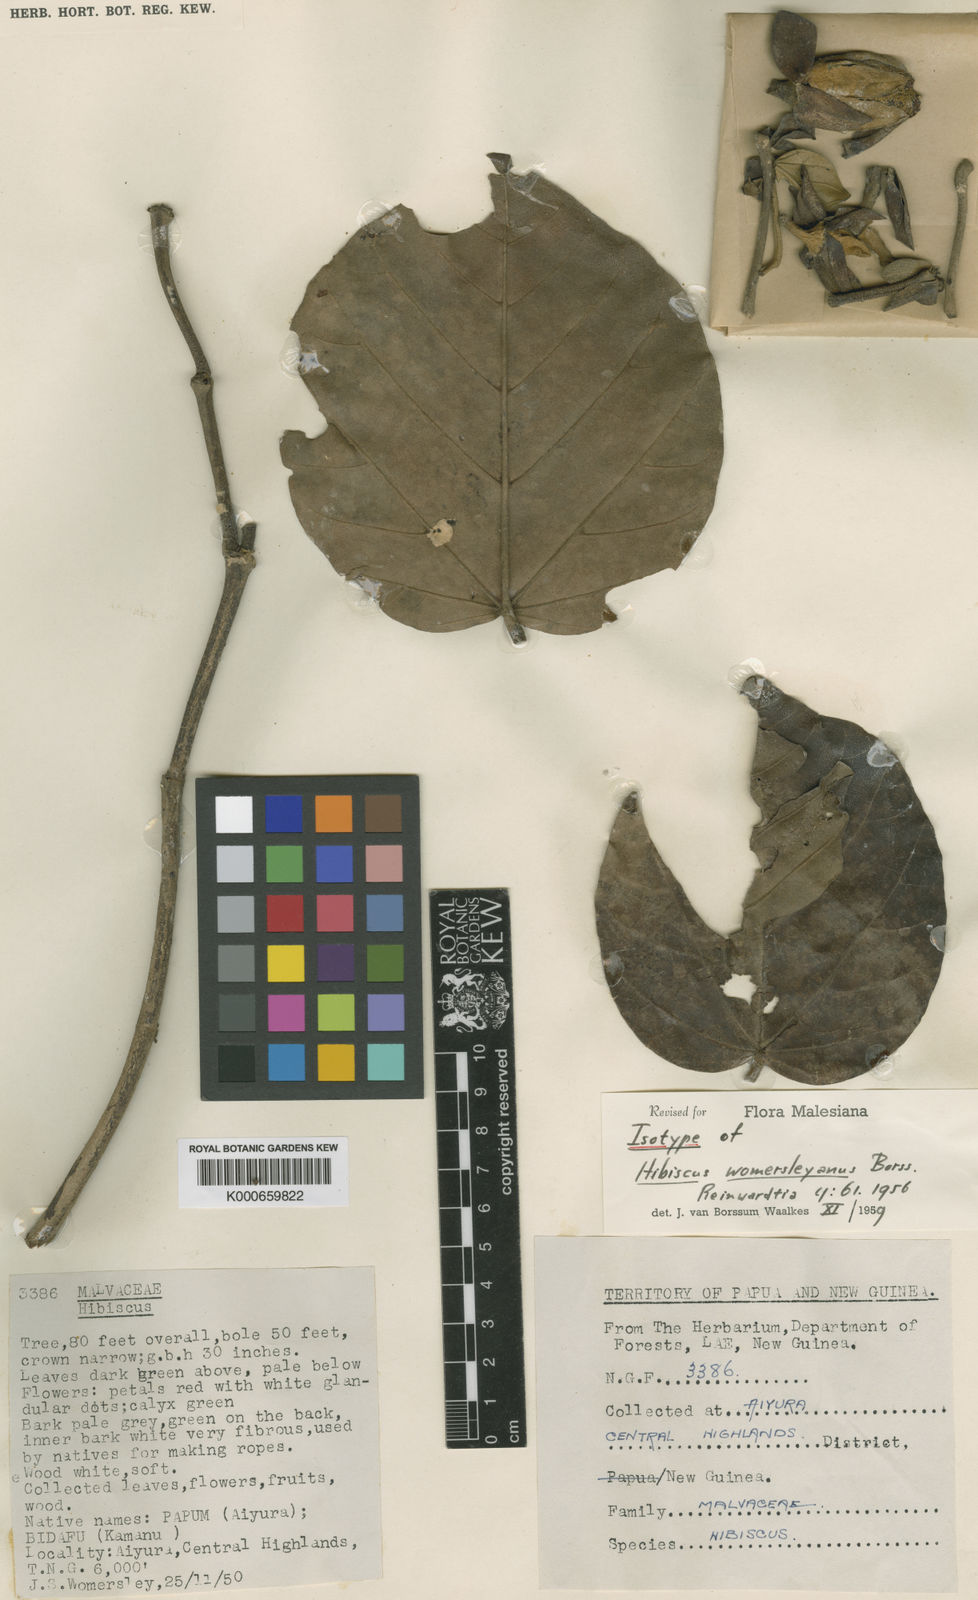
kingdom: Plantae
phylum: Tracheophyta
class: Magnoliopsida
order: Malvales
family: Malvaceae
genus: Talipariti
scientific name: Talipariti archboldianum
